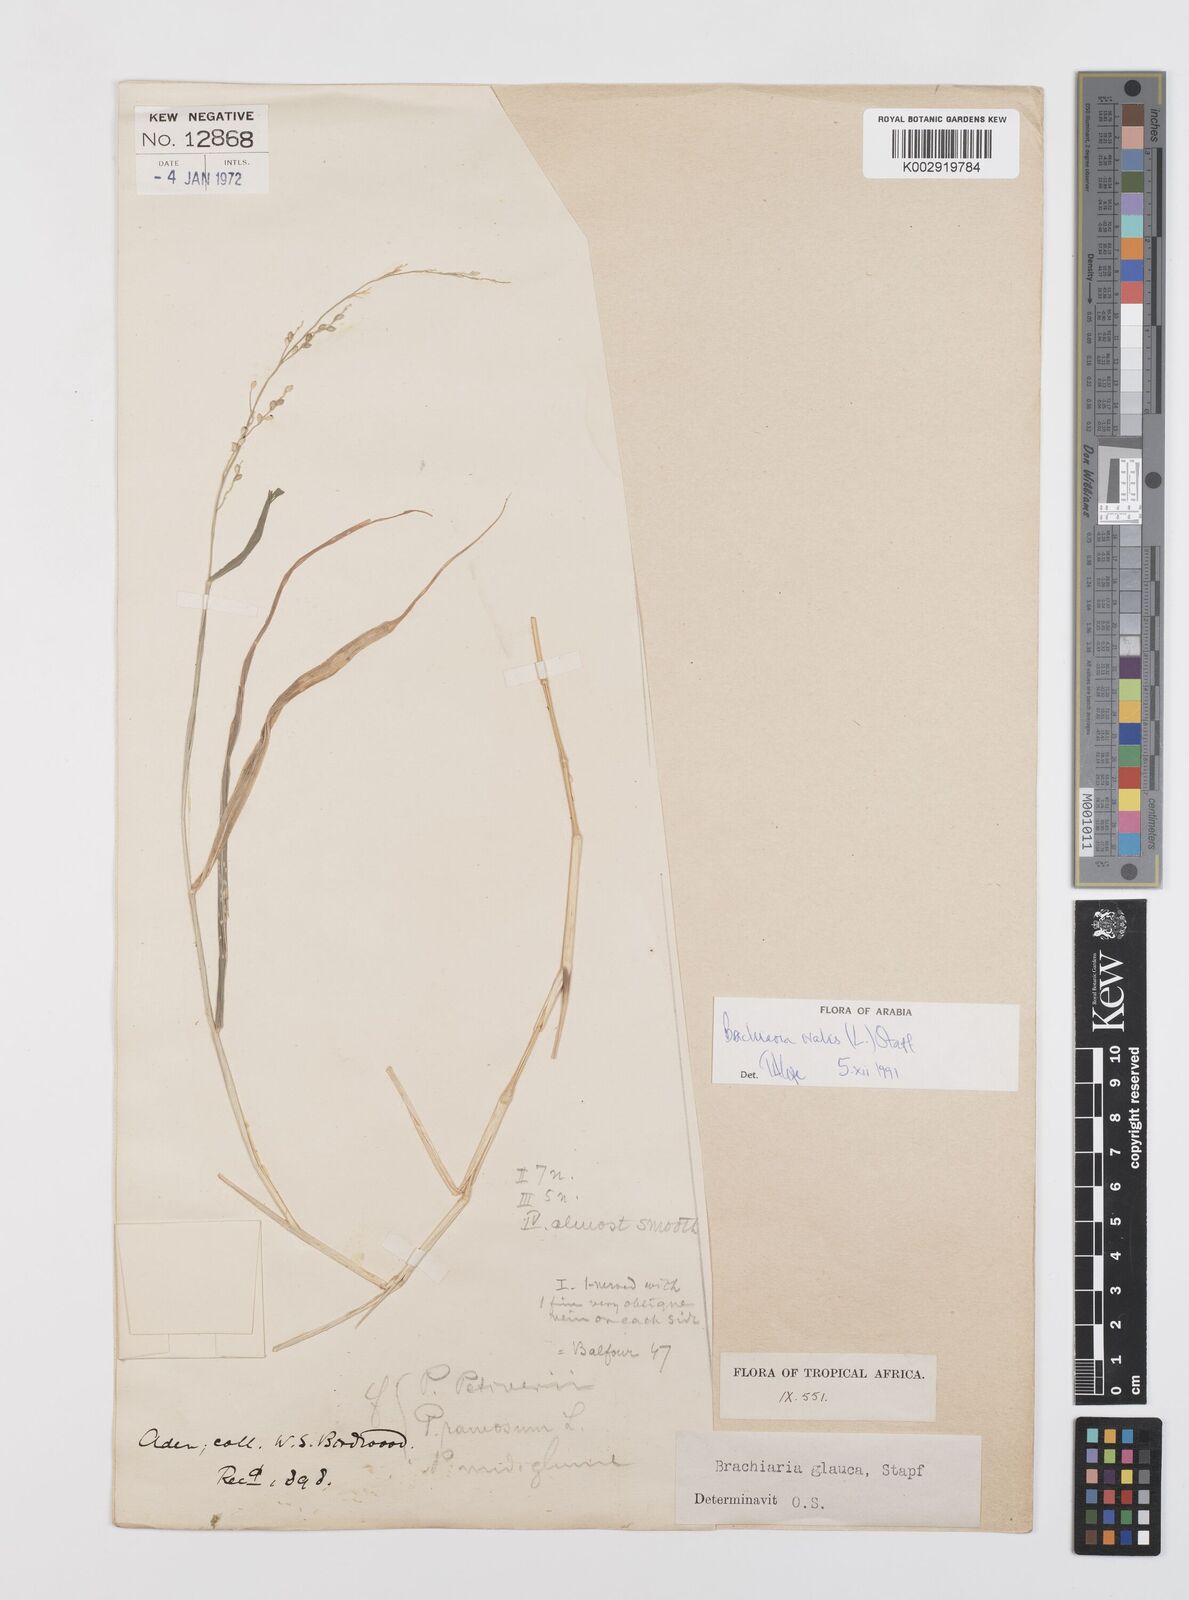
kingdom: Plantae
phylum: Tracheophyta
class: Liliopsida
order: Poales
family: Poaceae
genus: Urochloa
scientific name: Urochloa ovalis
